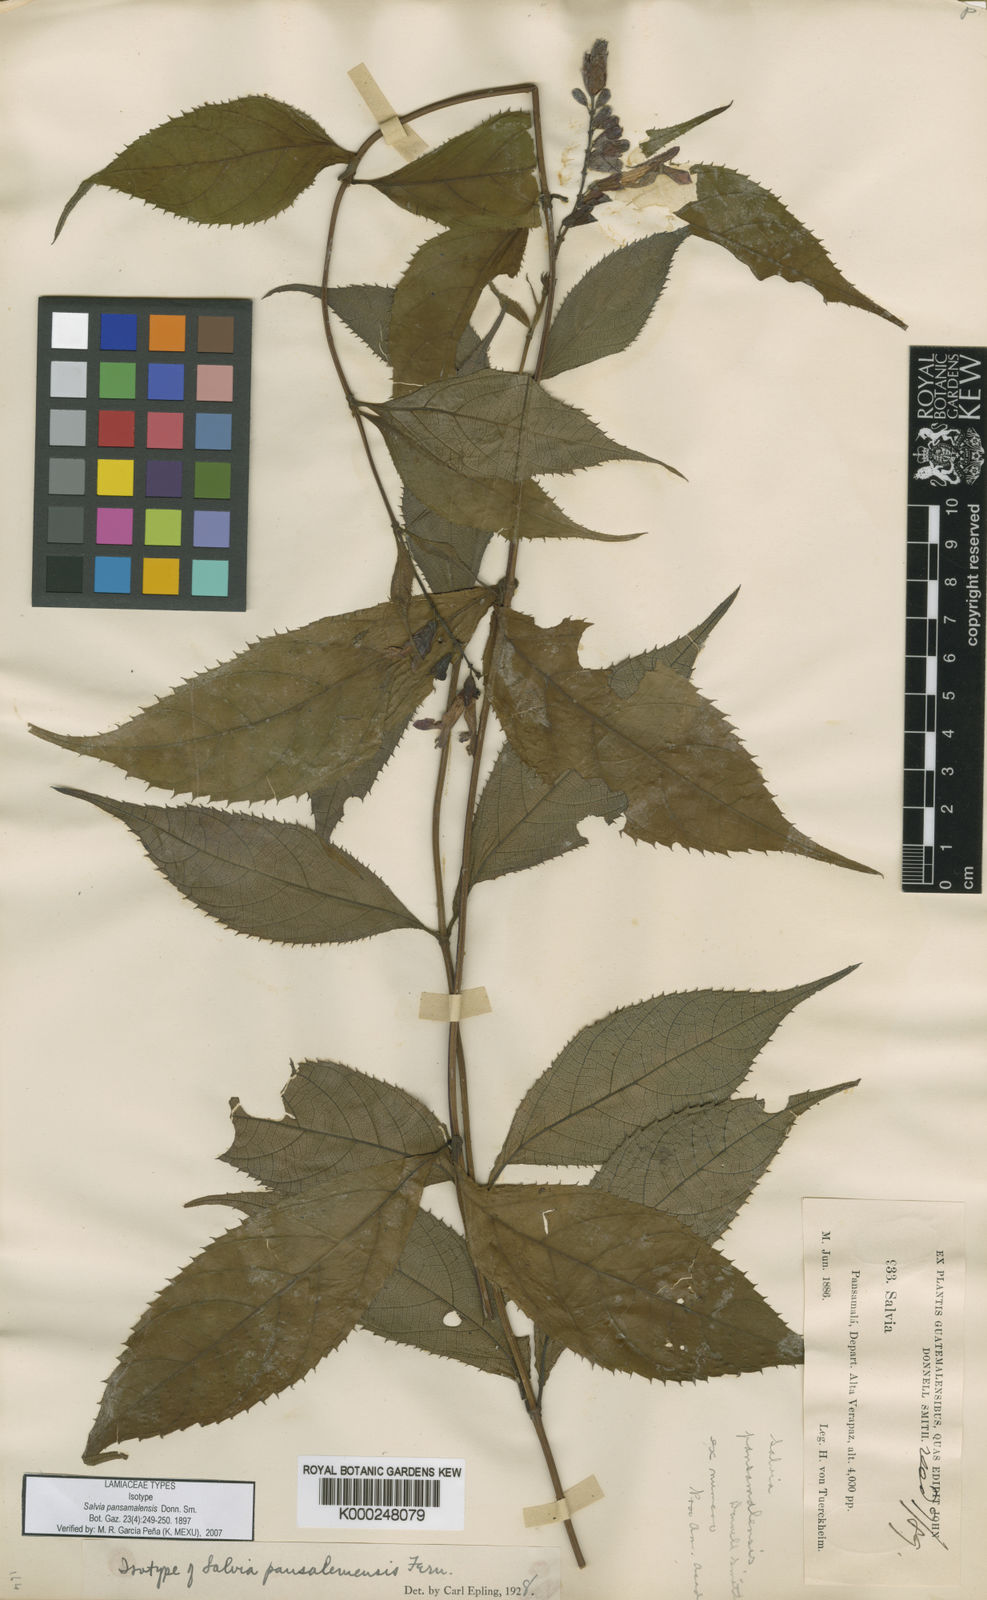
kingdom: Plantae
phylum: Tracheophyta
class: Magnoliopsida
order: Lamiales
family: Lamiaceae
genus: Salvia
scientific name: Salvia pansamalensis
